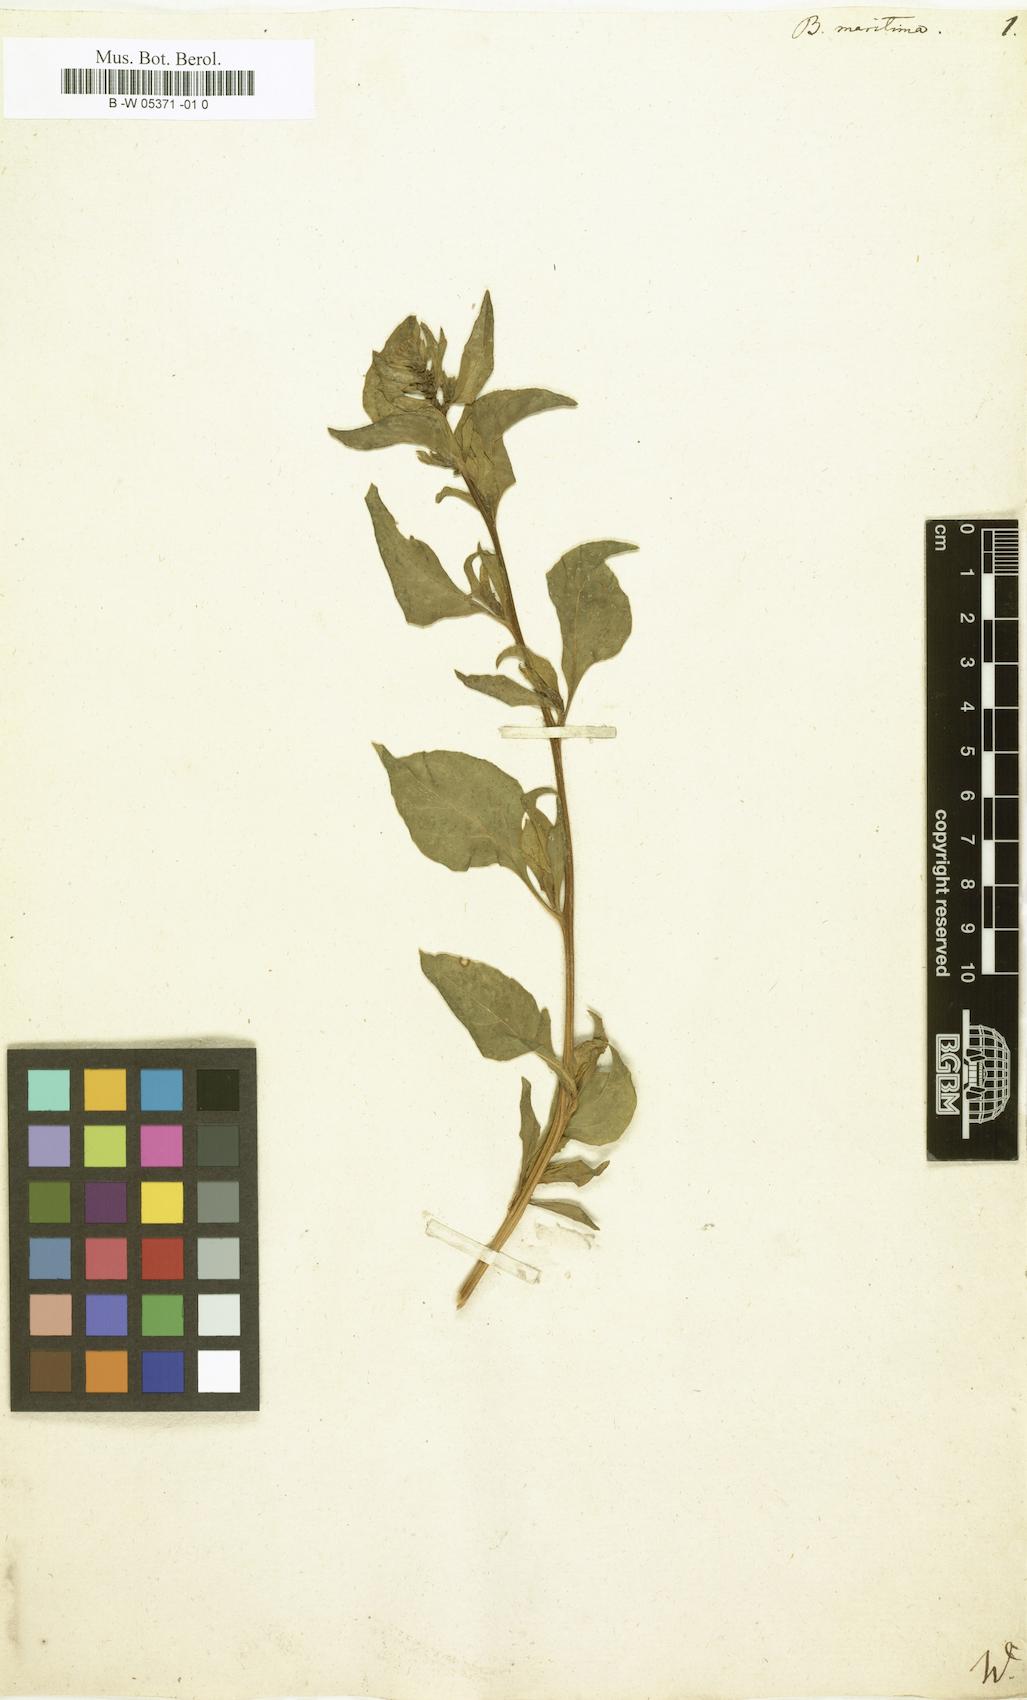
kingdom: Plantae
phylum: Tracheophyta
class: Magnoliopsida
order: Caryophyllales
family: Amaranthaceae
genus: Beta
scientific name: Beta maritima
